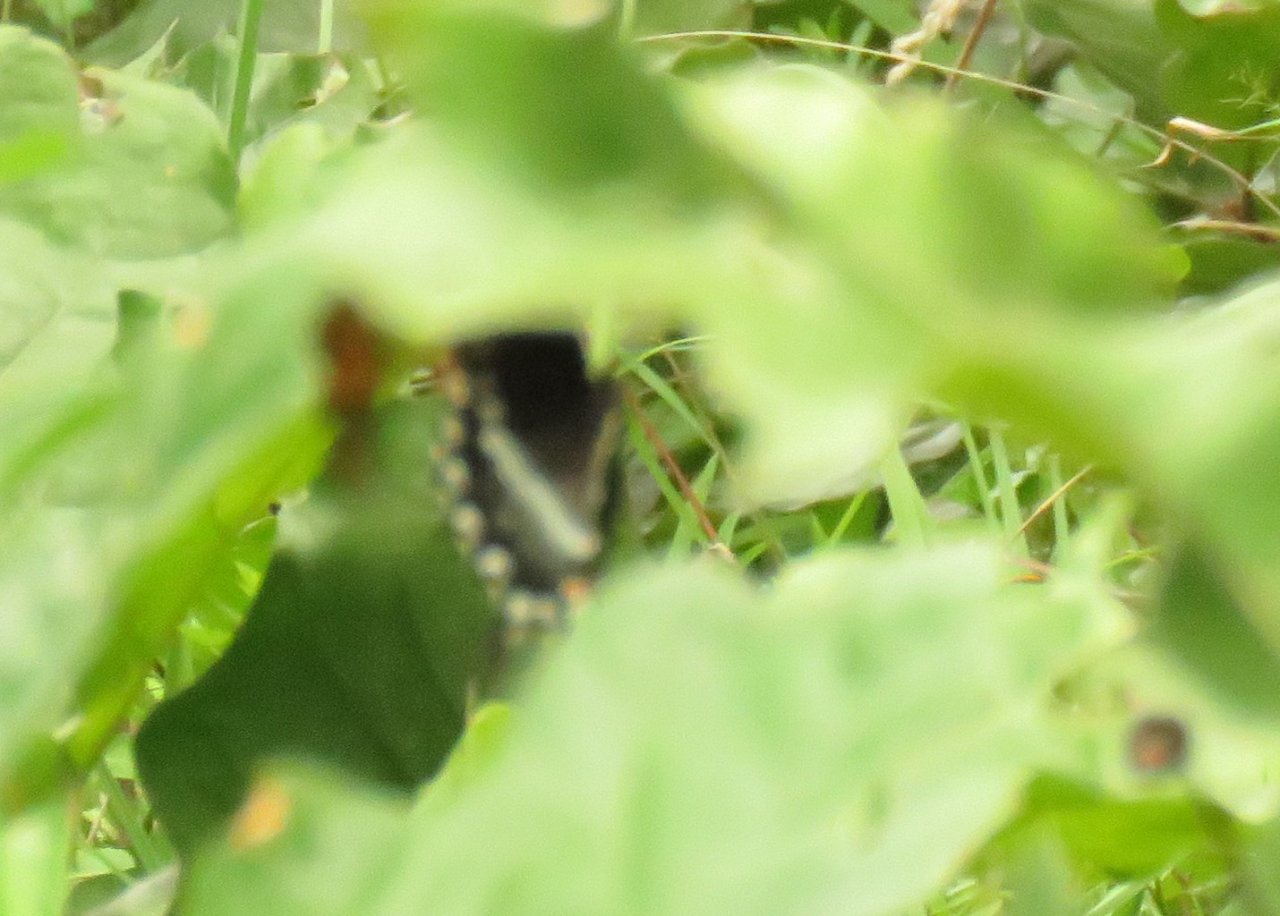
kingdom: Animalia
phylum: Arthropoda
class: Insecta
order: Lepidoptera
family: Papilionidae
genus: Pterourus
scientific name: Pterourus troilus
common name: Spicebush Swallowtail
